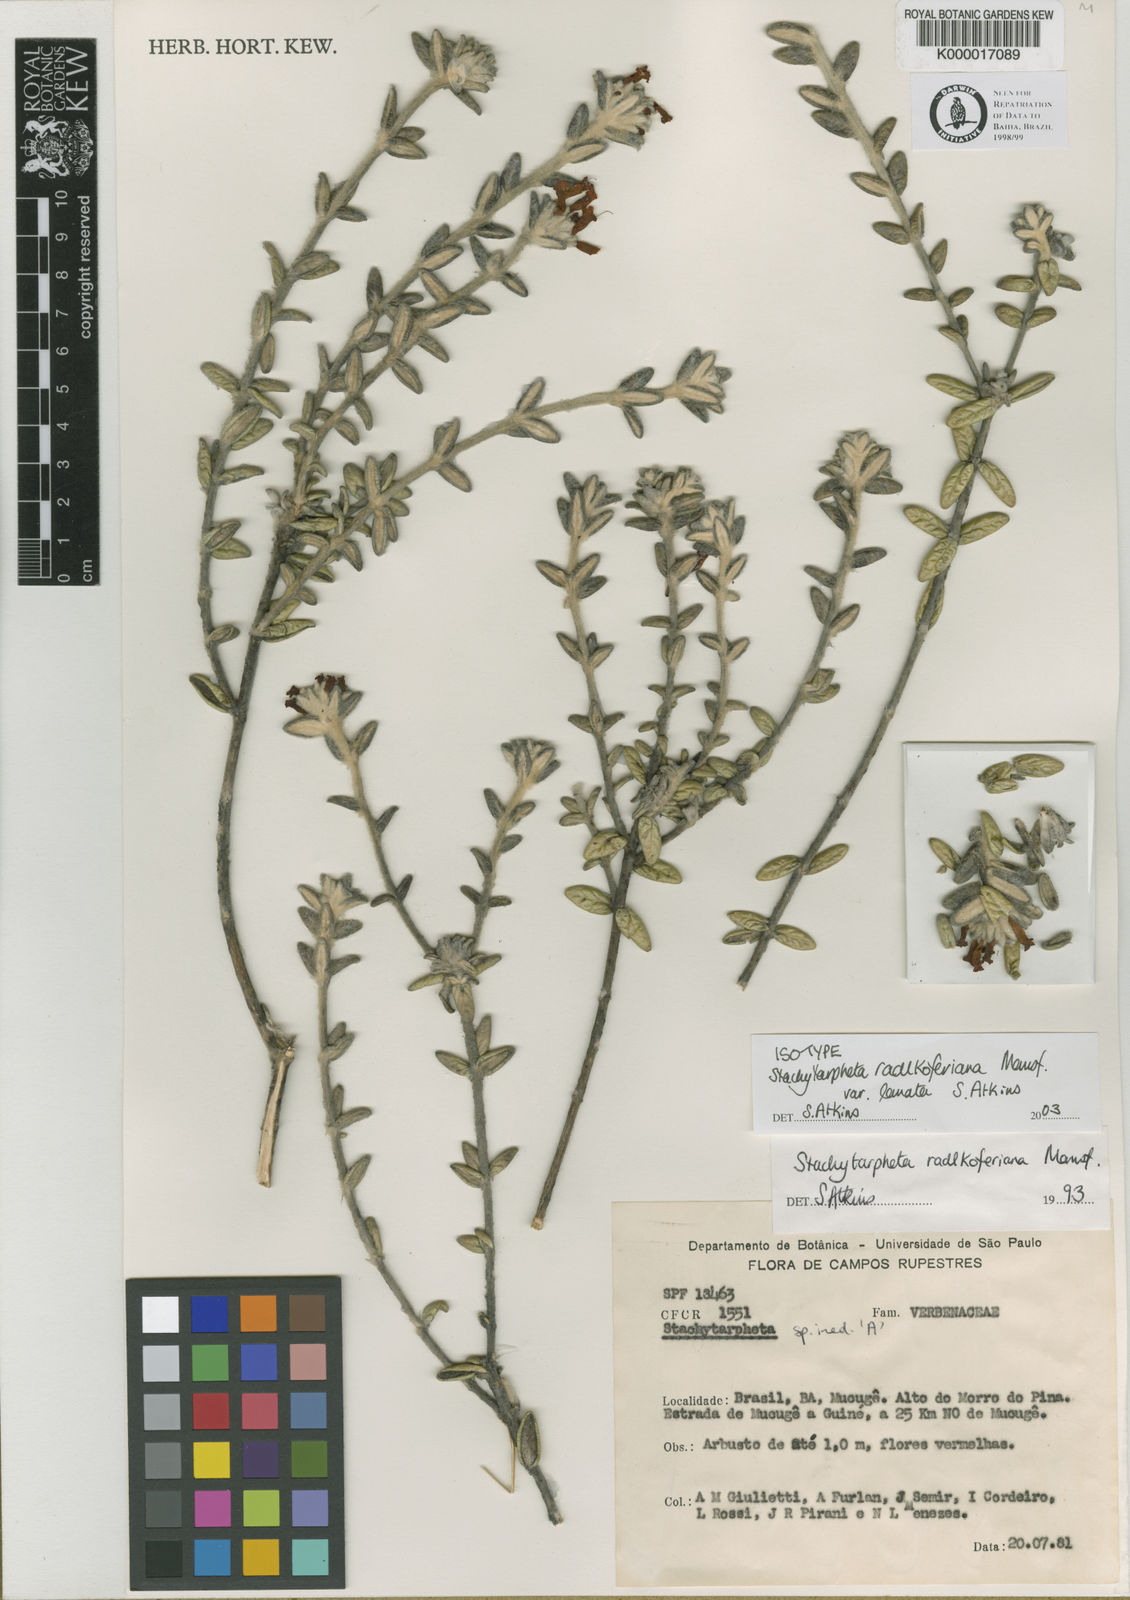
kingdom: Plantae
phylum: Tracheophyta
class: Magnoliopsida
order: Lamiales
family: Verbenaceae
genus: Stachytarpheta
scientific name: Stachytarpheta radlkoferiana
